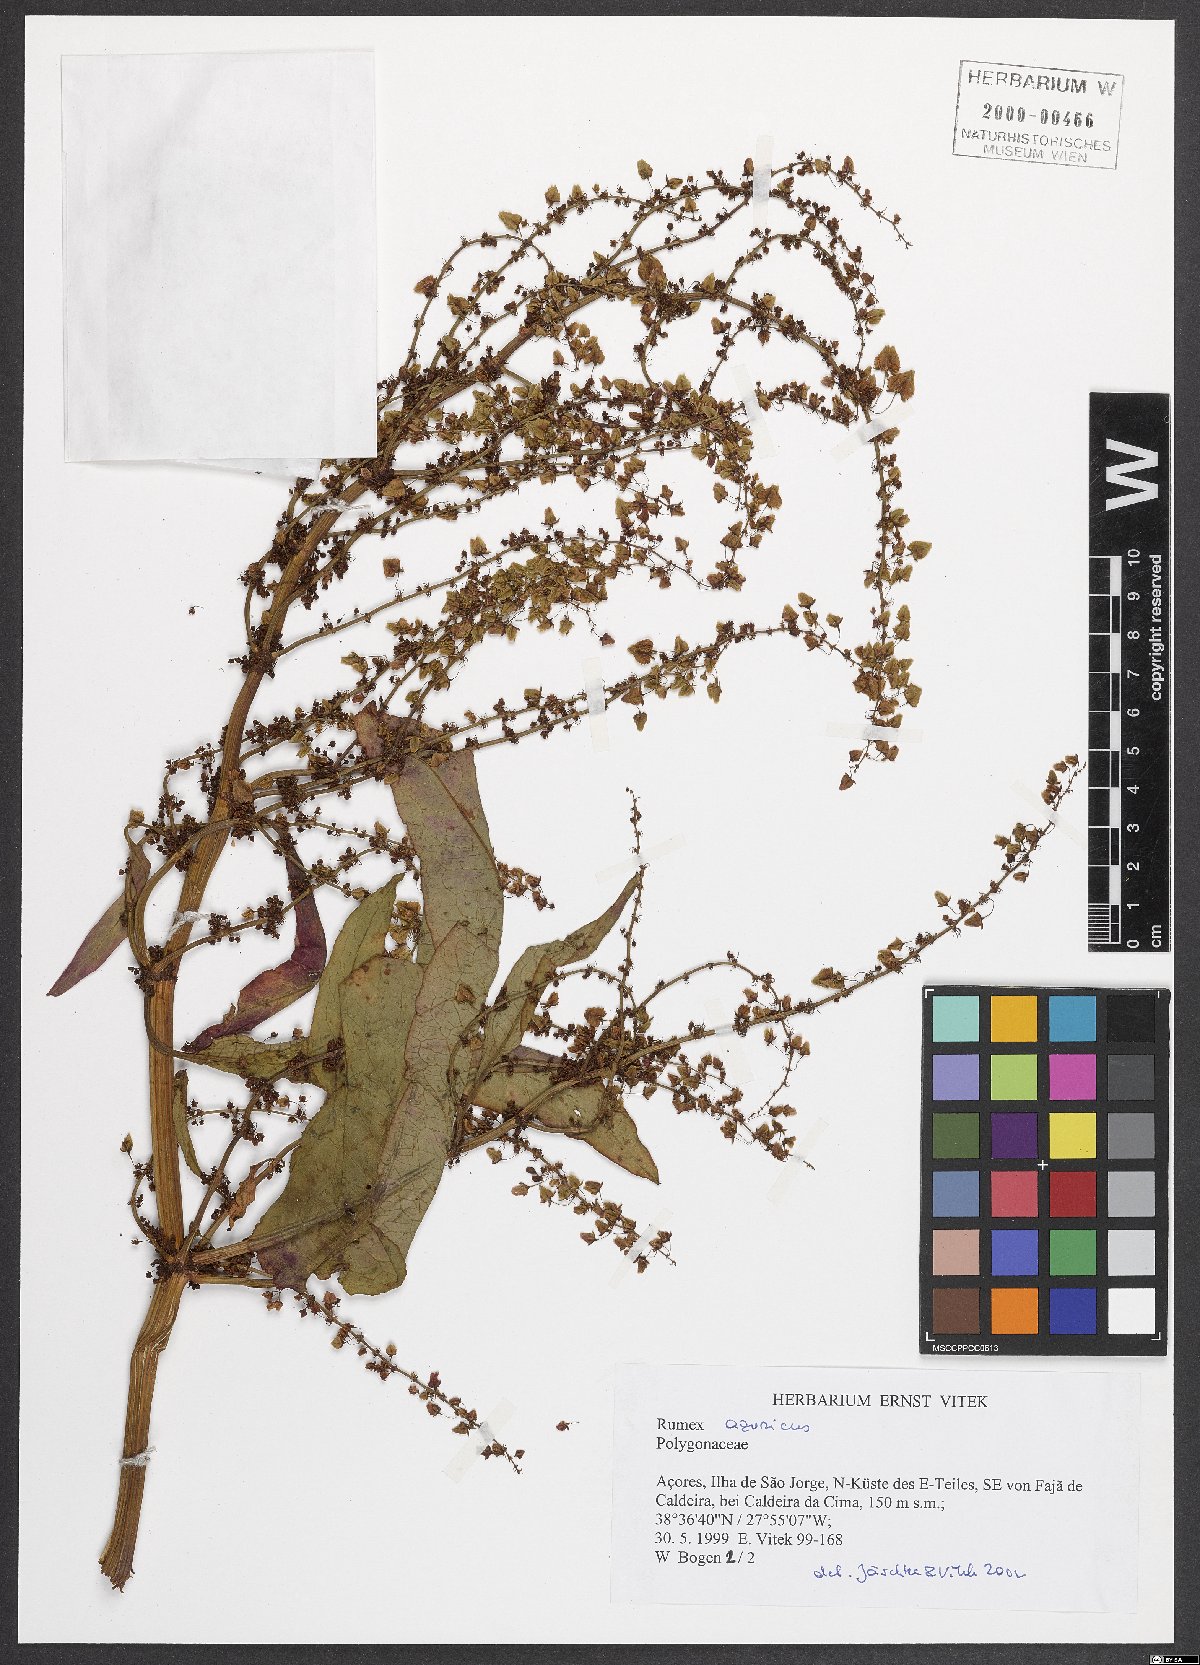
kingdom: Plantae
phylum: Tracheophyta
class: Magnoliopsida
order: Caryophyllales
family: Polygonaceae
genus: Rumex
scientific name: Rumex azoricus
